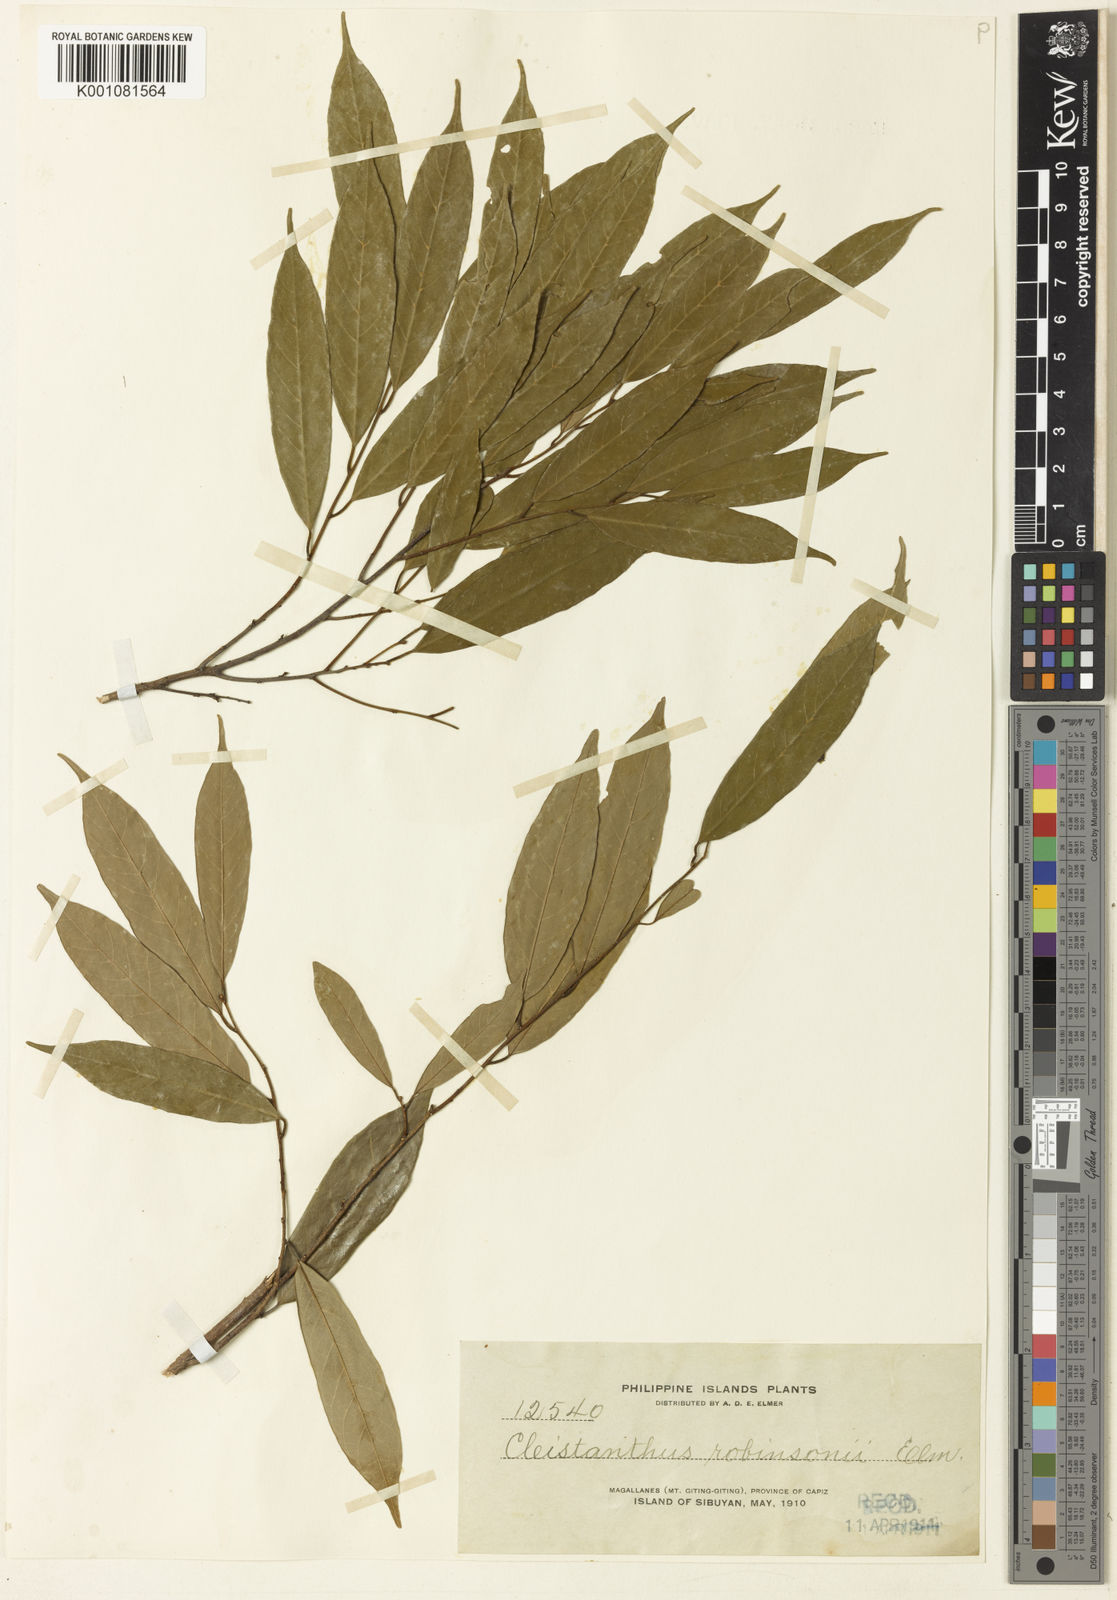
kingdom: Plantae
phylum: Tracheophyta
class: Magnoliopsida
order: Malpighiales
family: Phyllanthaceae
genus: Cleistanthus
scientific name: Cleistanthus robinsonii
